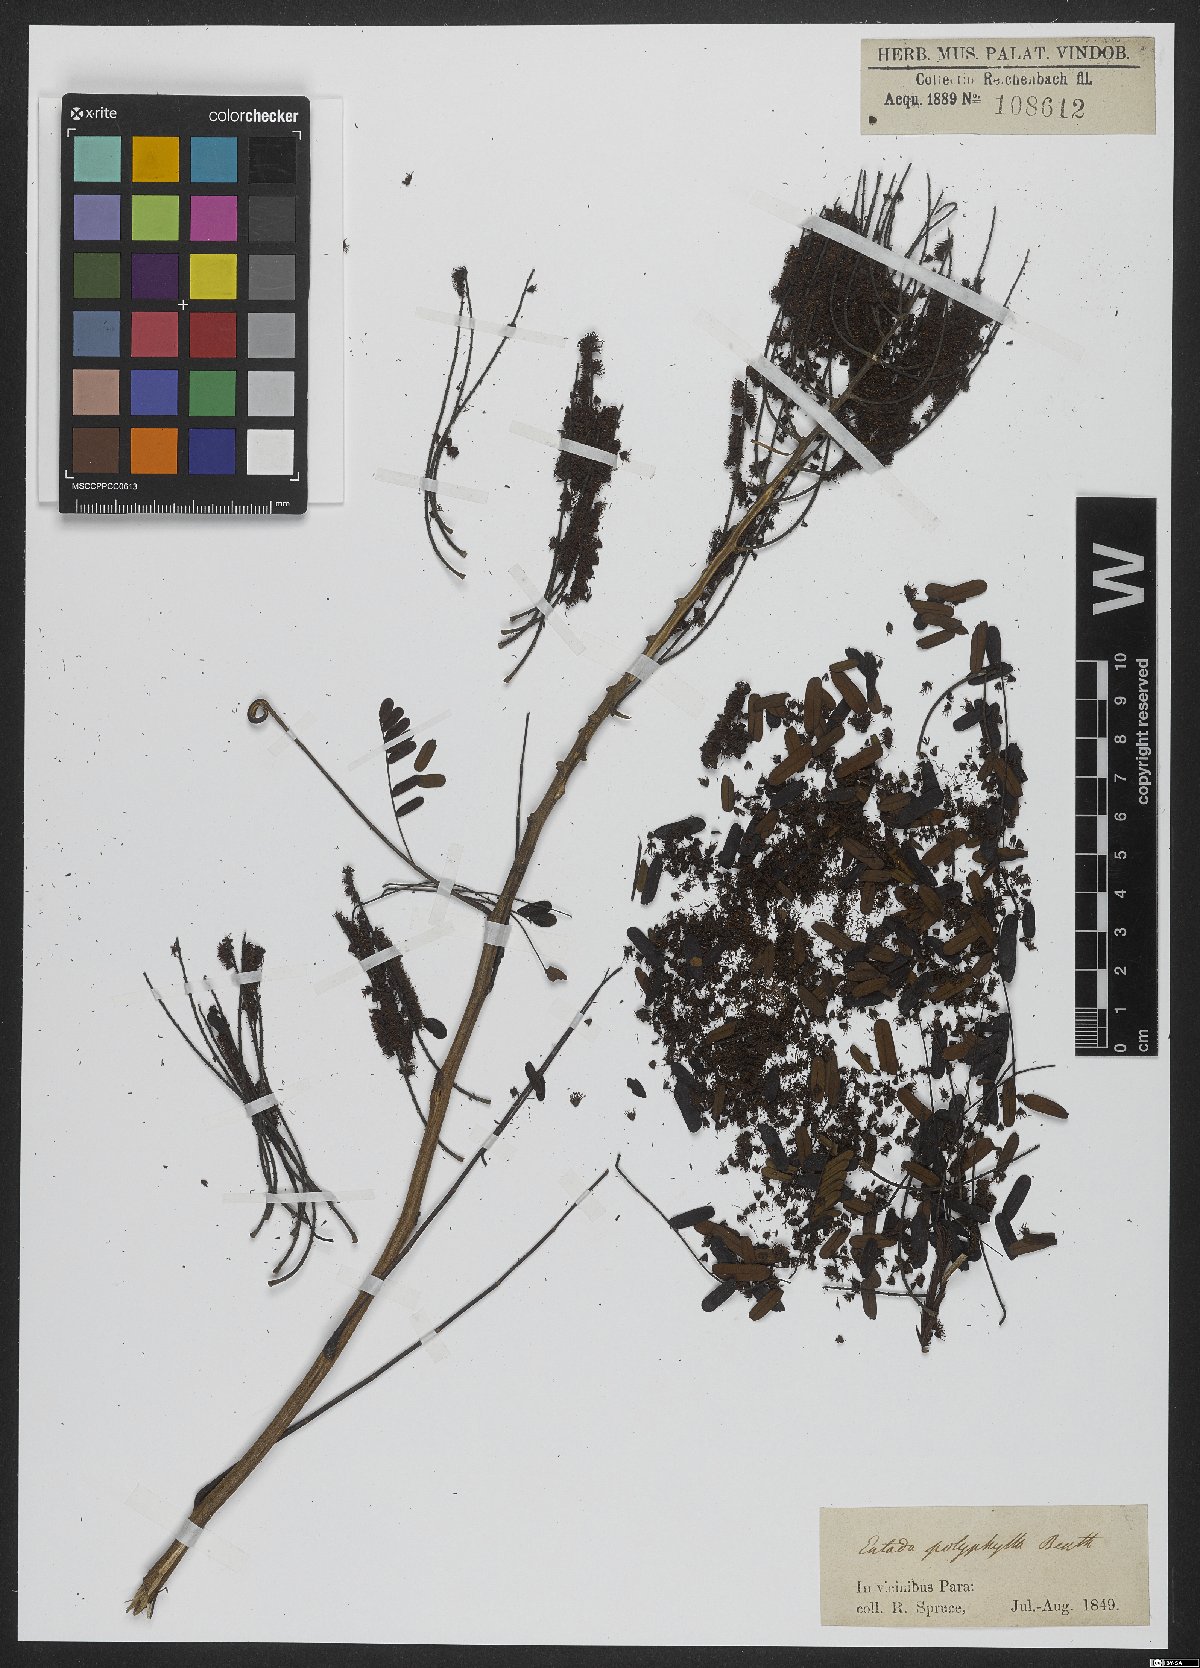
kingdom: Plantae
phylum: Tracheophyta
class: Magnoliopsida
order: Fabales
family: Fabaceae
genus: Entada
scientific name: Entada polyphylla
